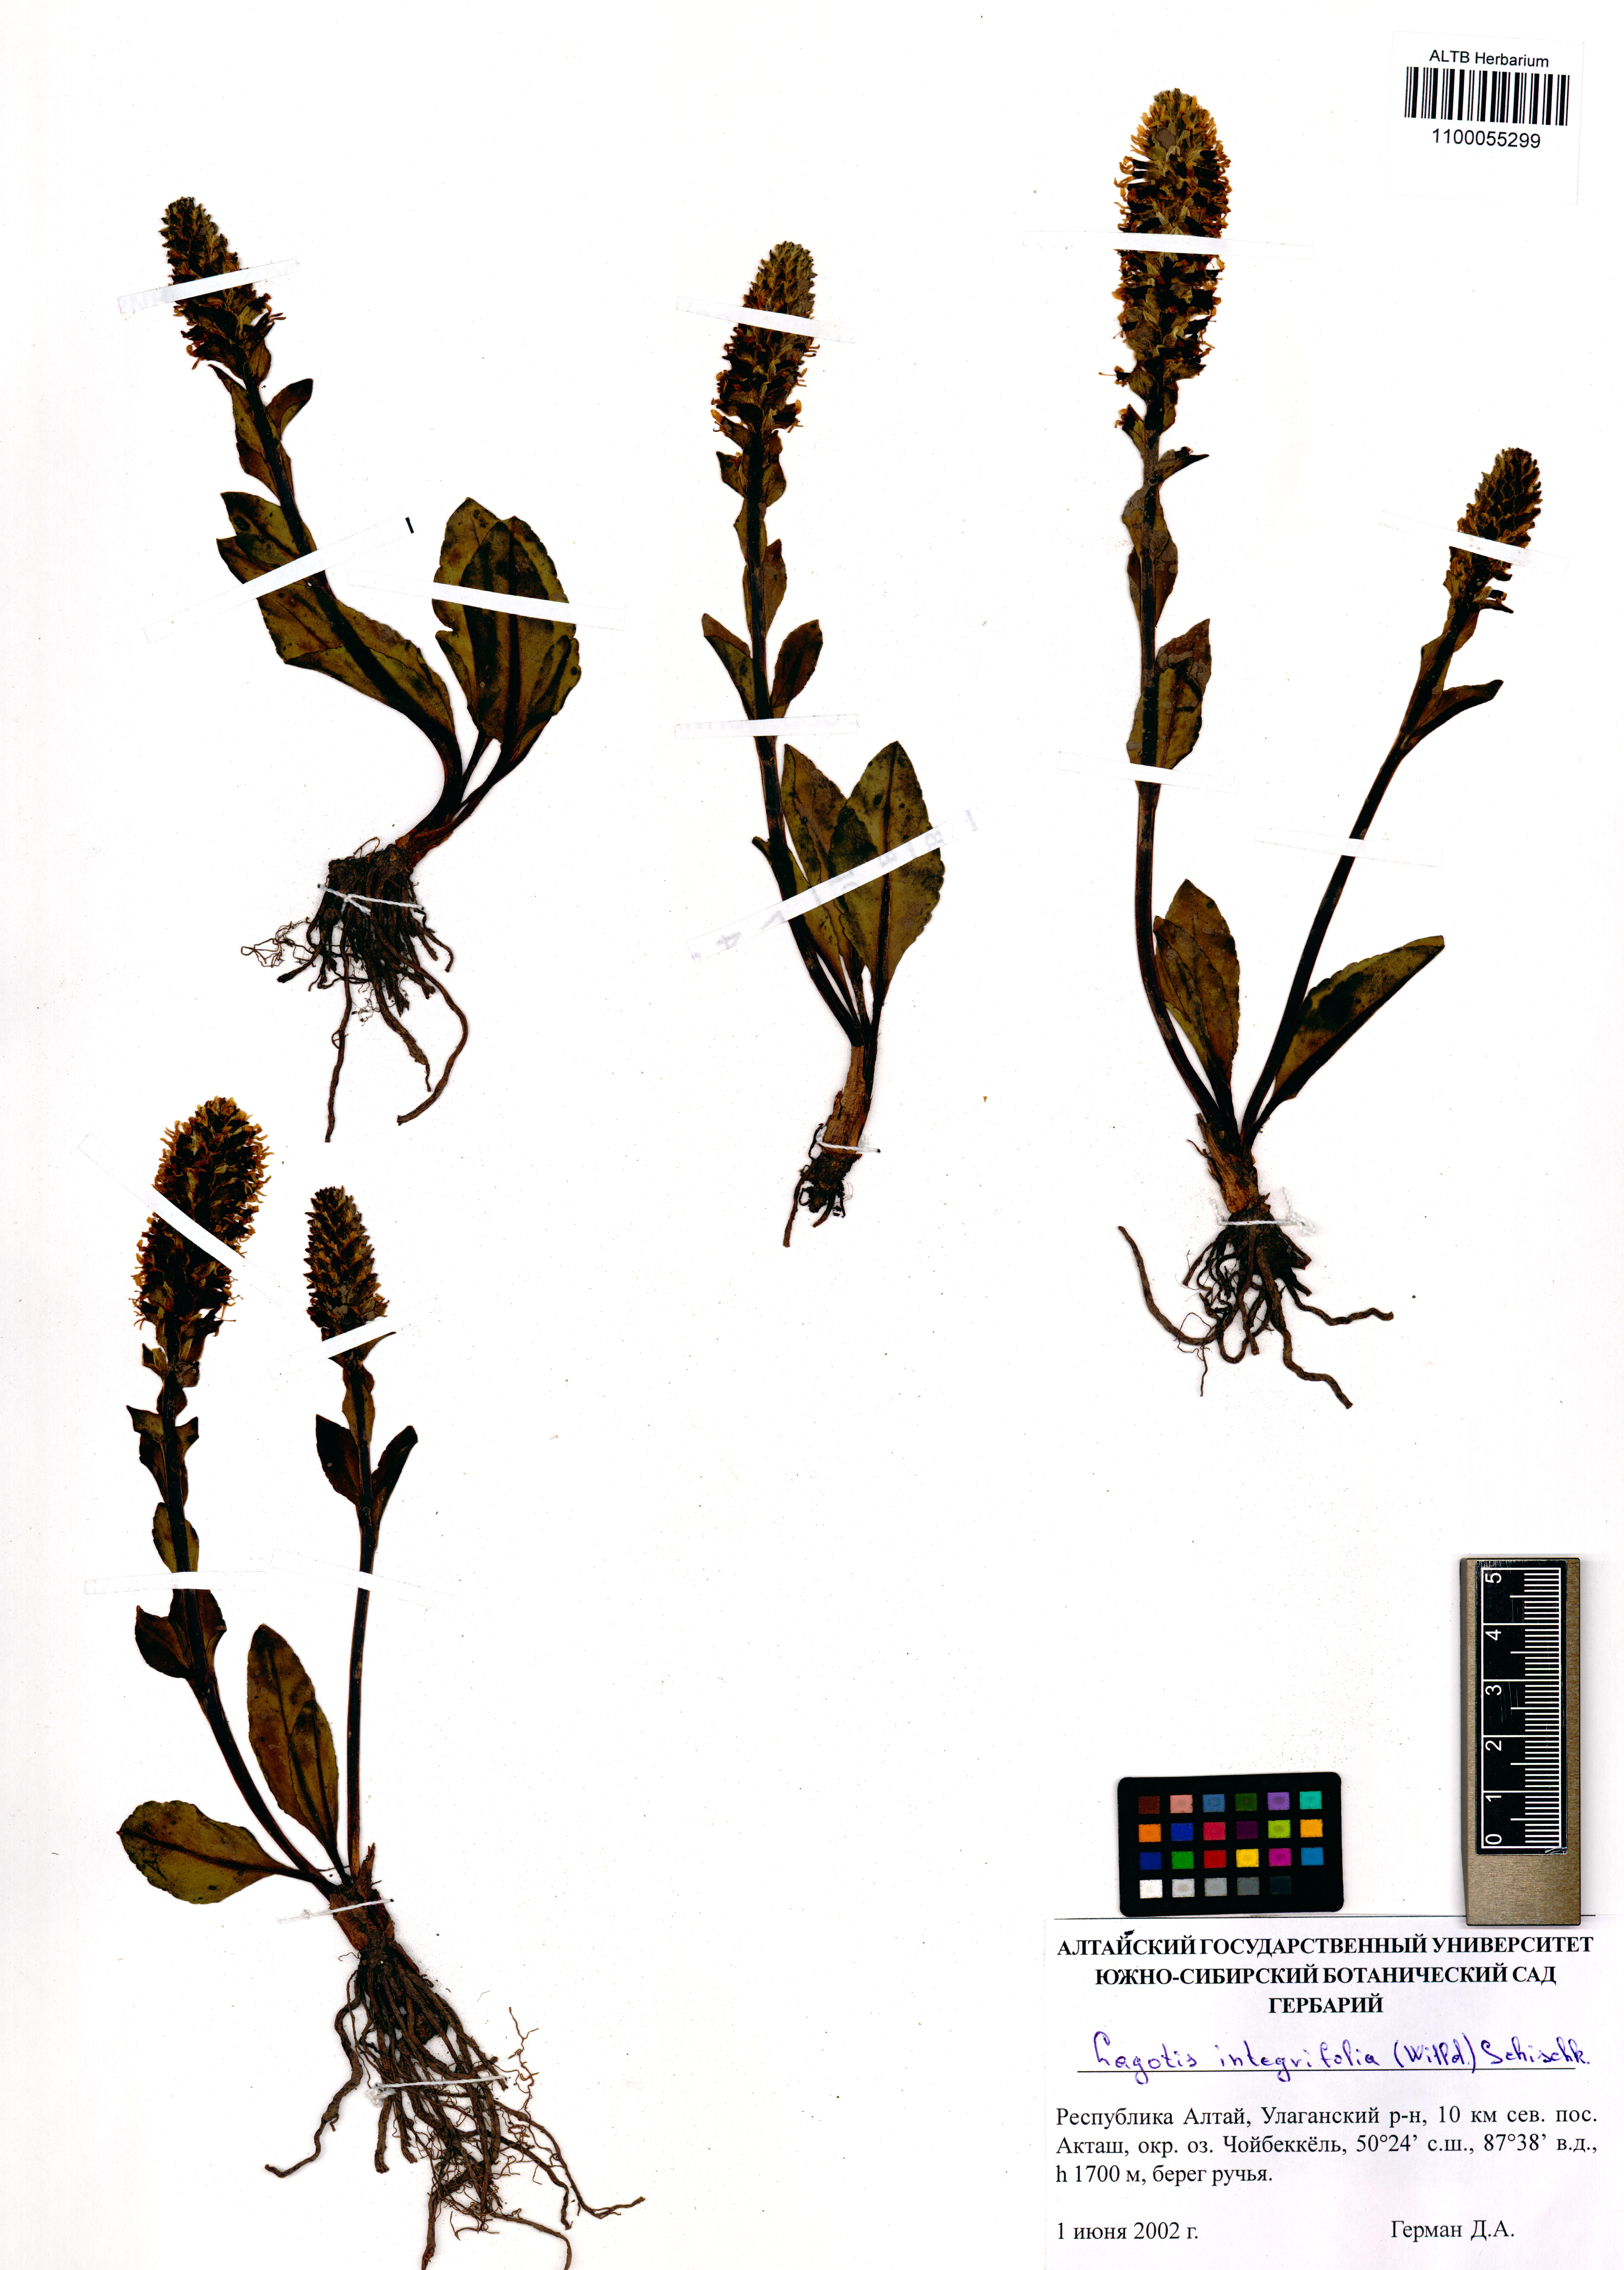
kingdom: Plantae
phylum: Tracheophyta
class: Magnoliopsida
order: Lamiales
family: Plantaginaceae
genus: Lagotis
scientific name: Lagotis integrifolia
